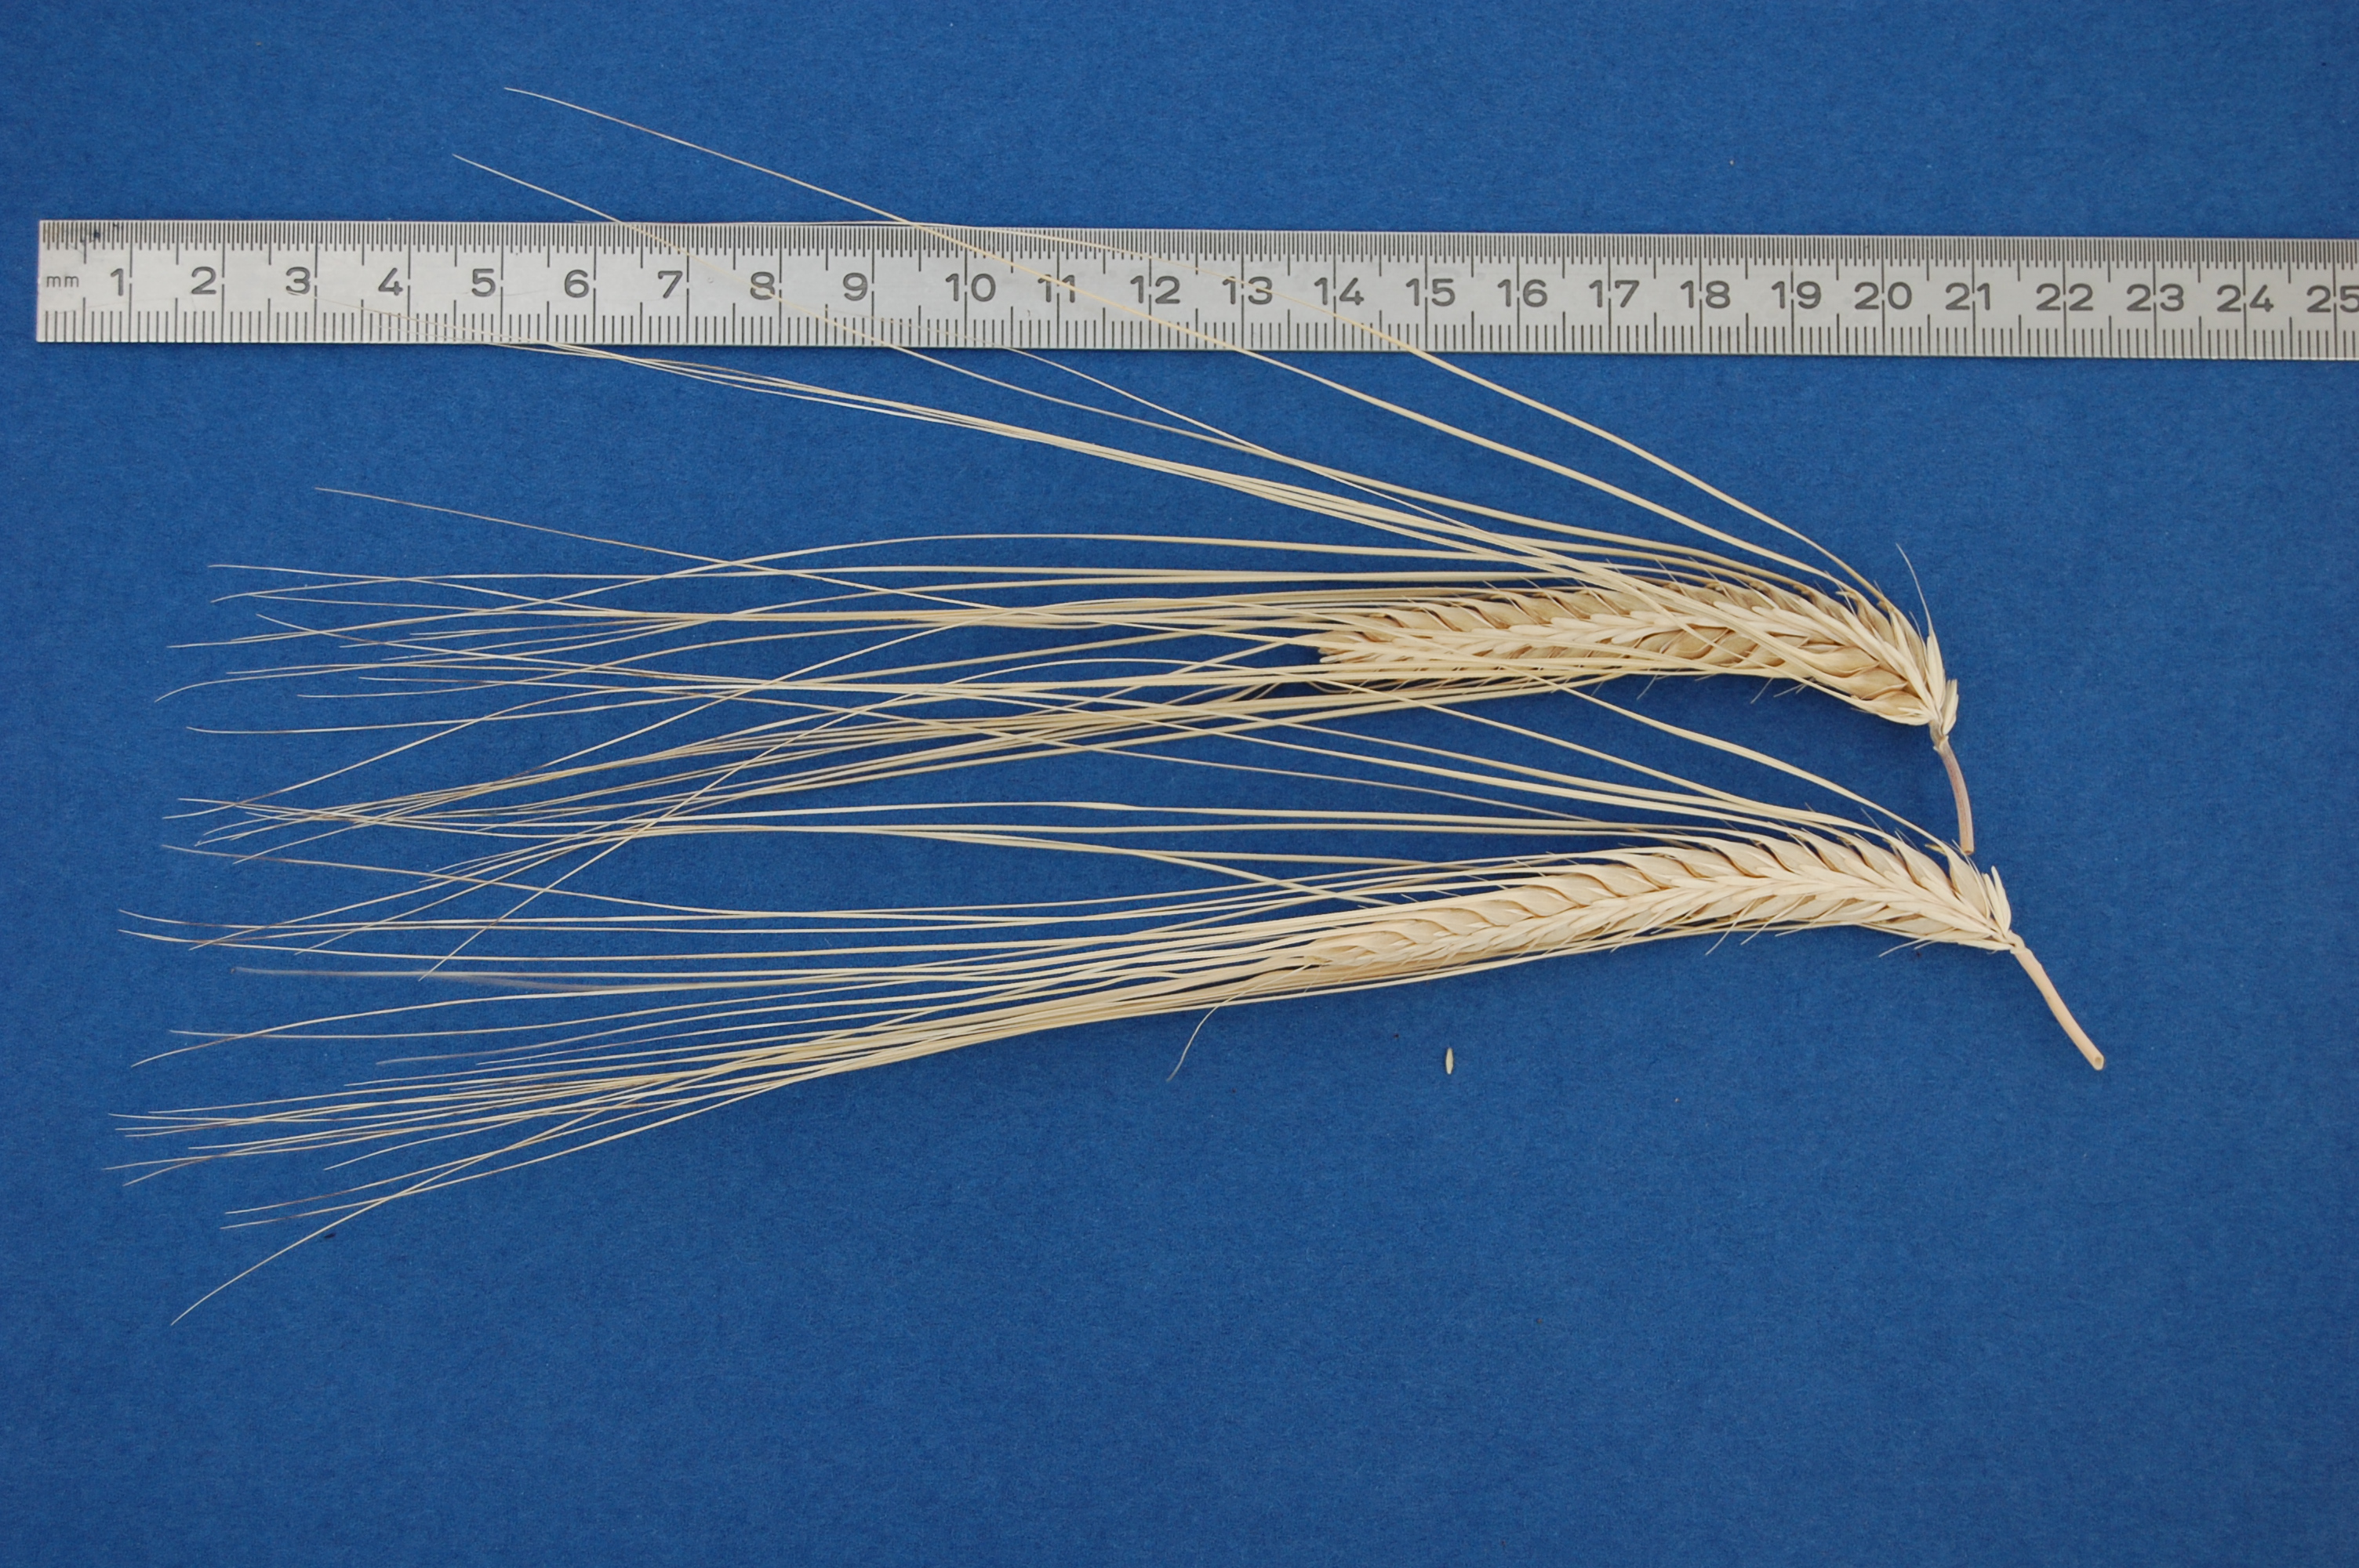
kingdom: Plantae
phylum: Tracheophyta
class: Liliopsida
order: Poales
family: Poaceae
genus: Hordeum
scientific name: Hordeum vulgare
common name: Common barley
